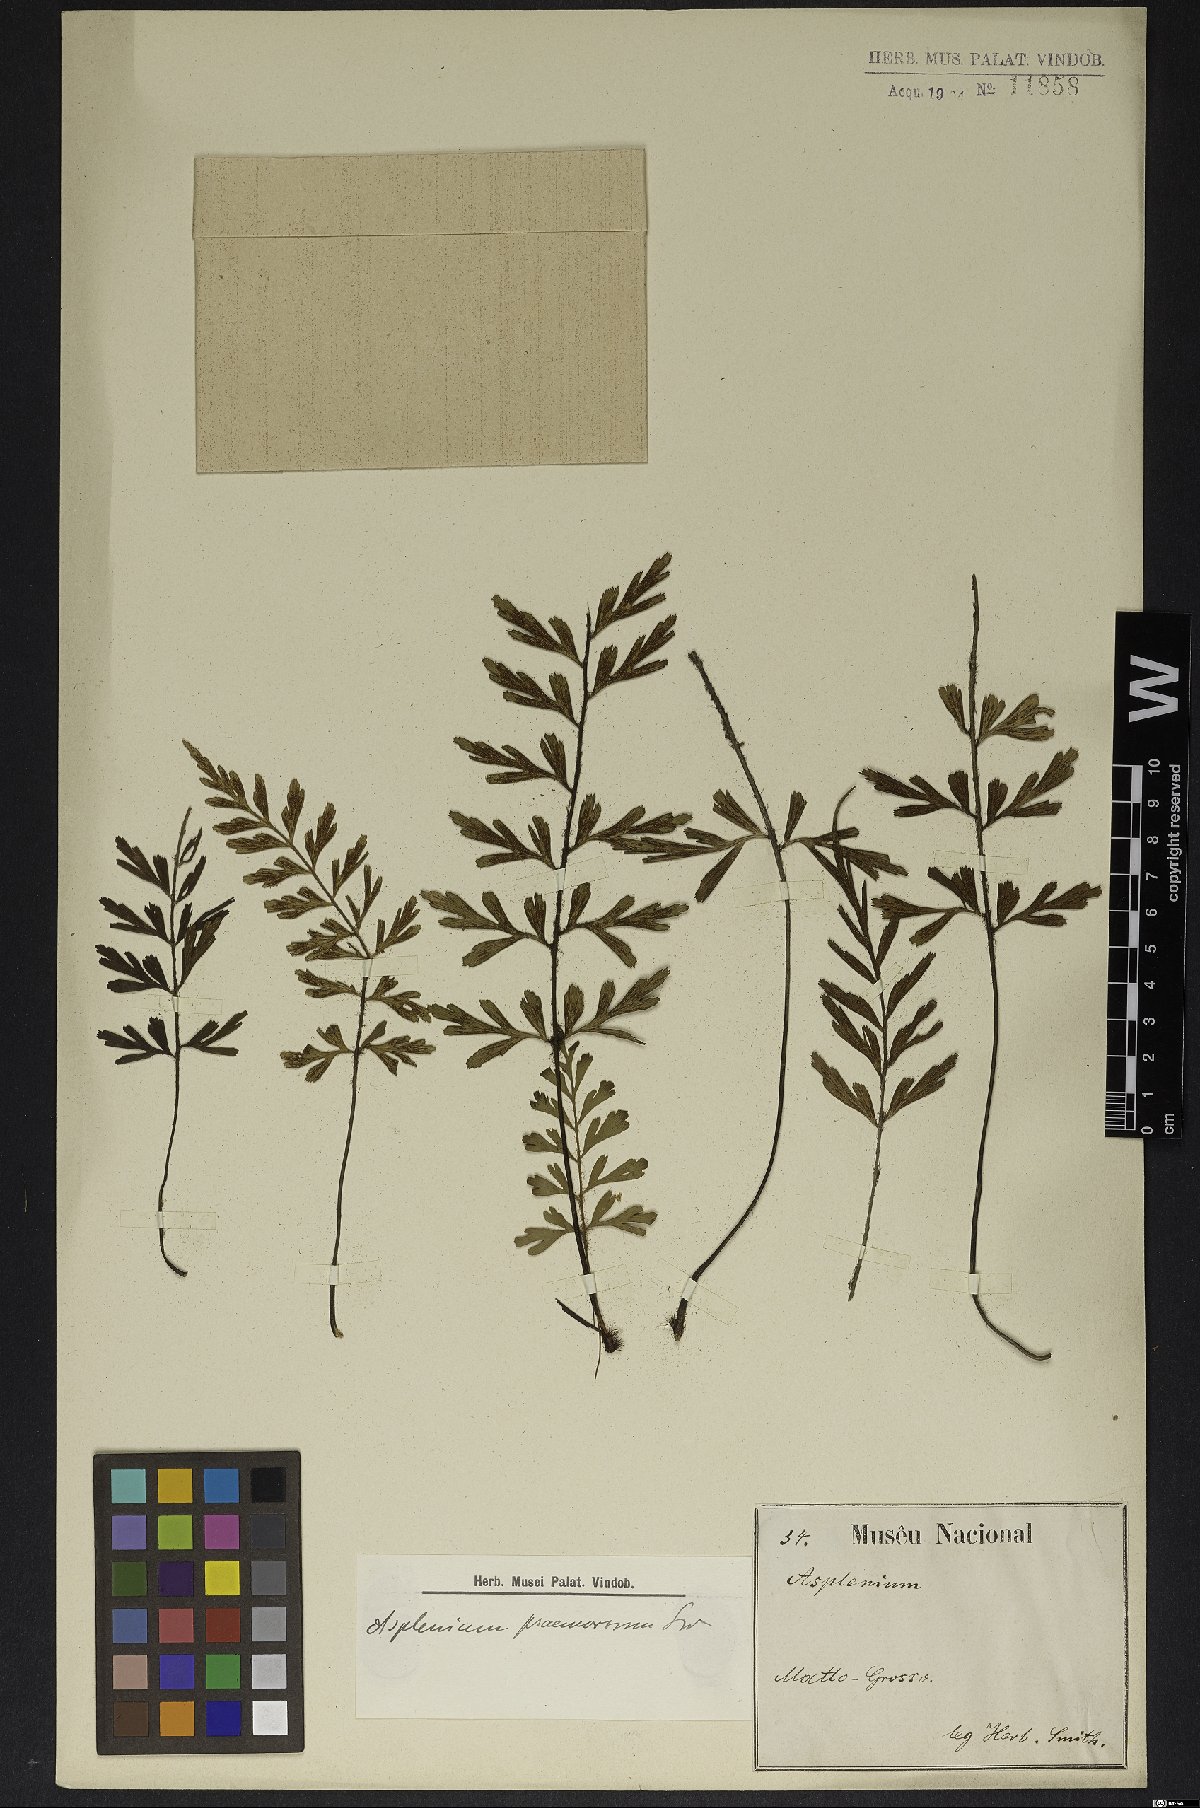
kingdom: Plantae
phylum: Tracheophyta
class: Polypodiopsida
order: Polypodiales
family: Aspleniaceae
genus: Asplenium
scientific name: Asplenium praemorsum
